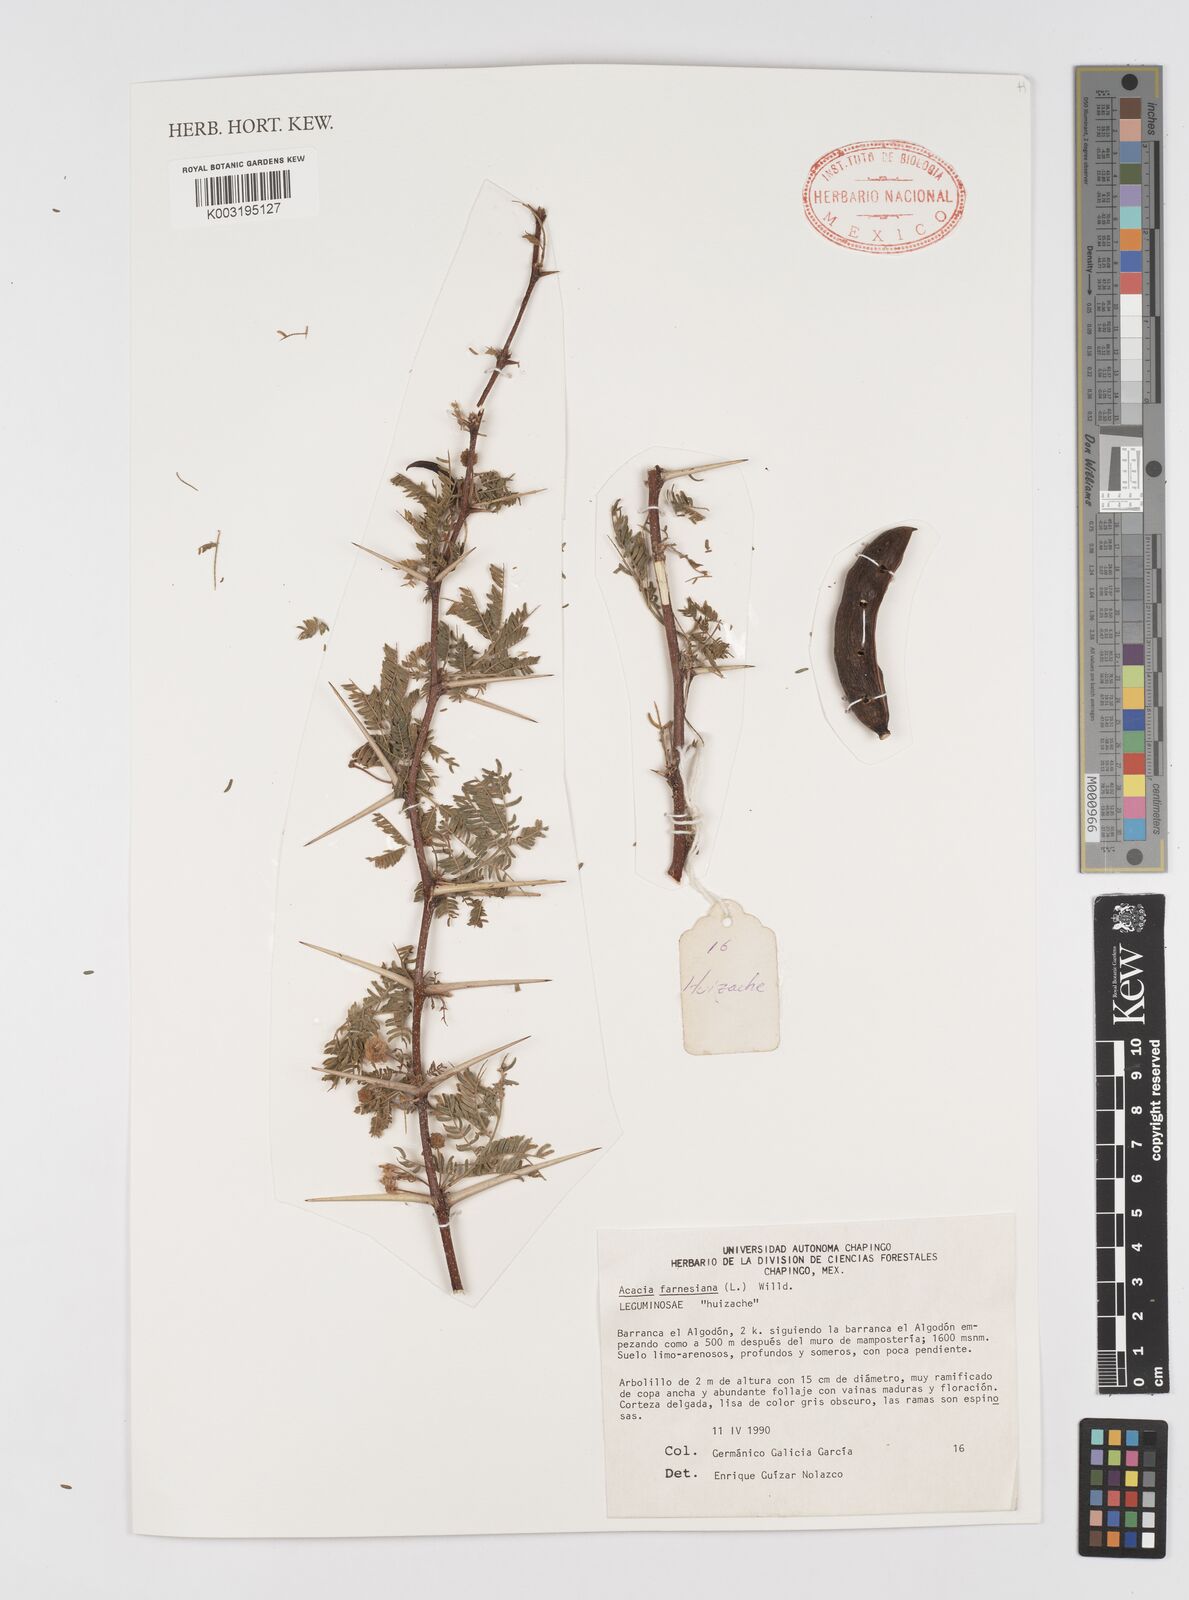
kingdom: Plantae
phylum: Tracheophyta
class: Magnoliopsida
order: Fabales
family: Fabaceae
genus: Vachellia
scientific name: Vachellia farnesiana
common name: Sweet acacia
